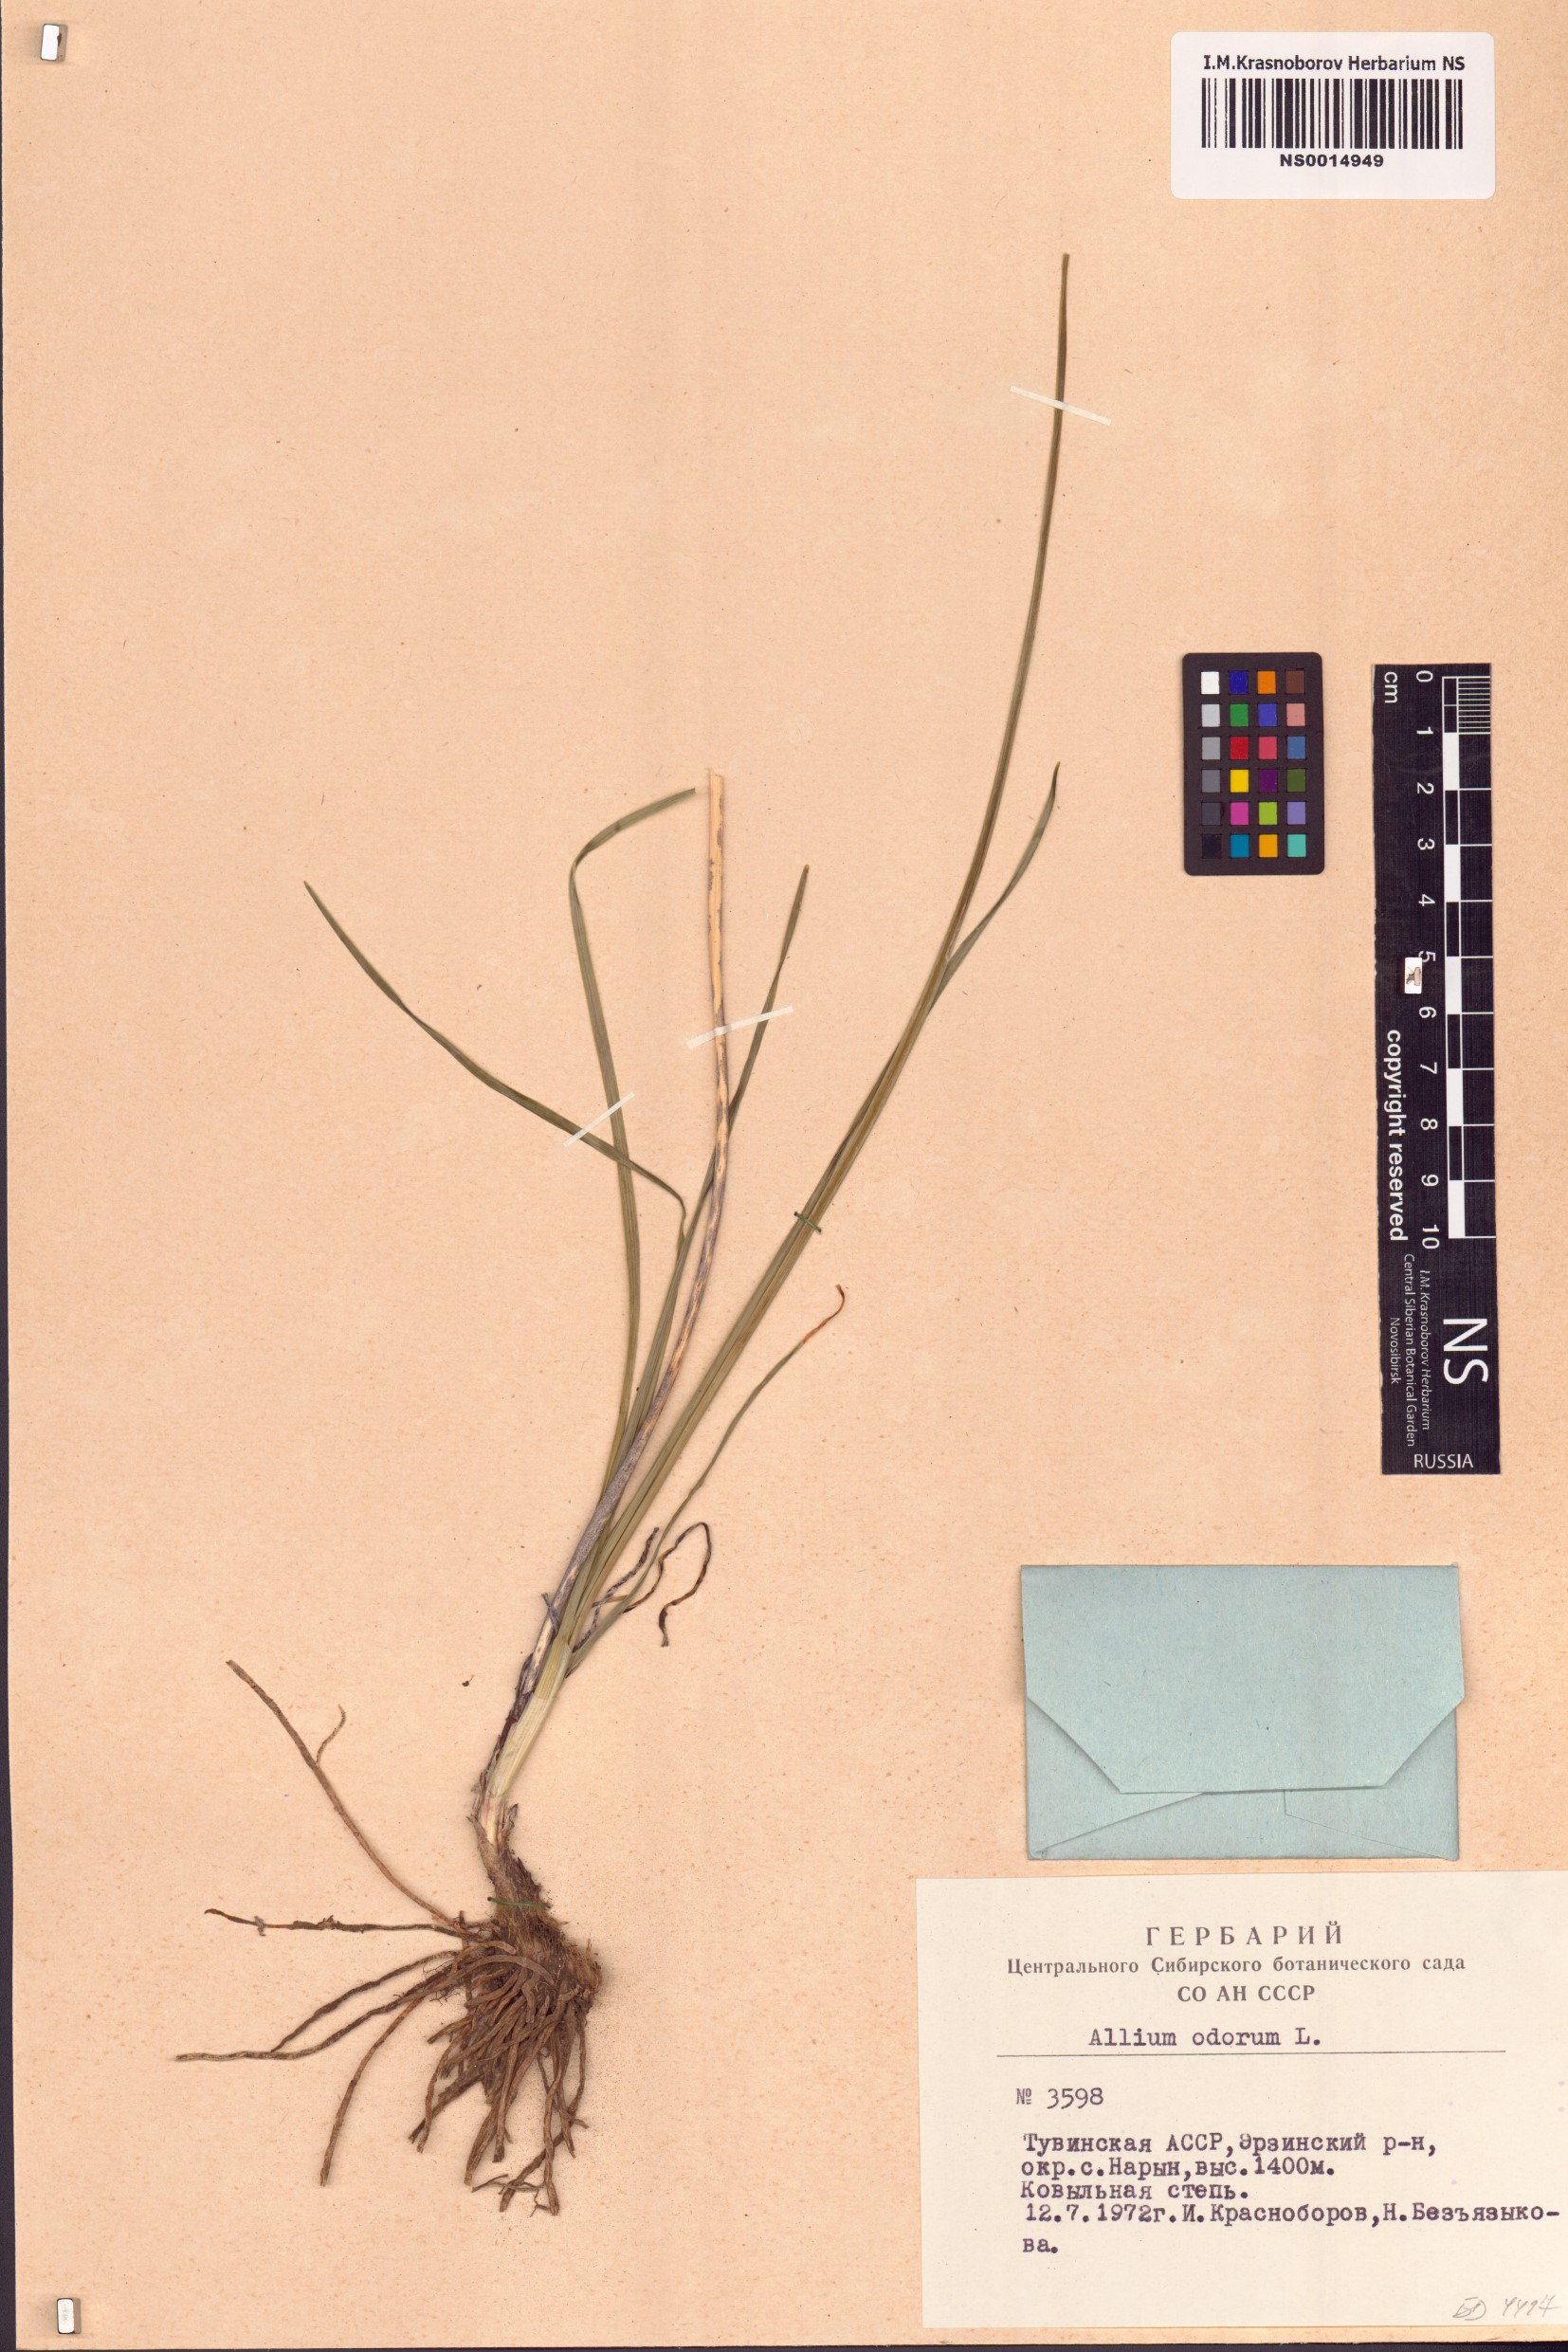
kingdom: Plantae
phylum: Tracheophyta
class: Liliopsida
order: Asparagales
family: Amaryllidaceae
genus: Allium
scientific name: Allium ramosum
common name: Fragrant garlic
